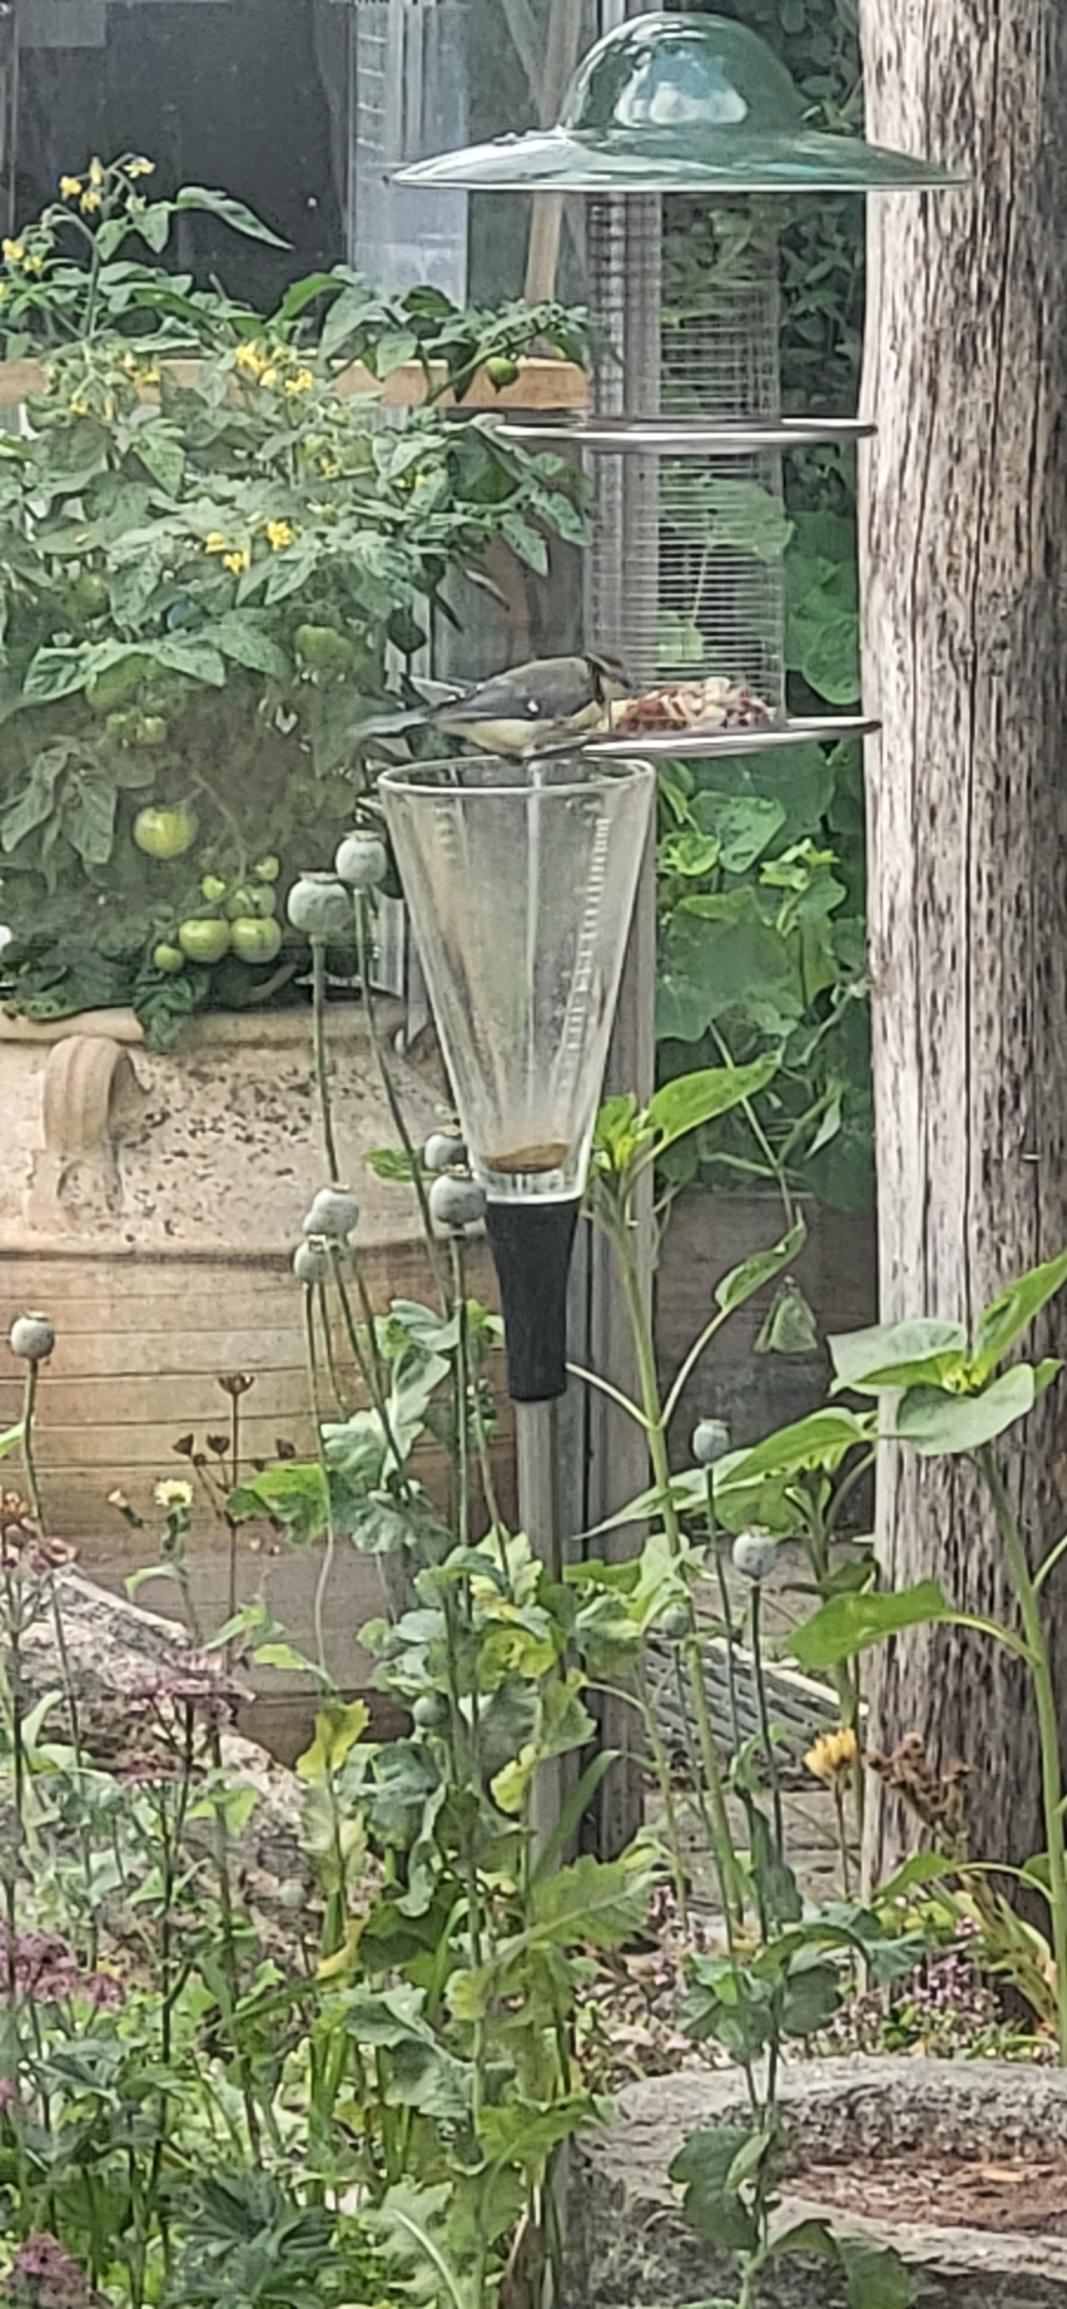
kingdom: Animalia
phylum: Chordata
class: Aves
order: Passeriformes
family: Paridae
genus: Parus
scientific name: Parus major
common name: Musvit
